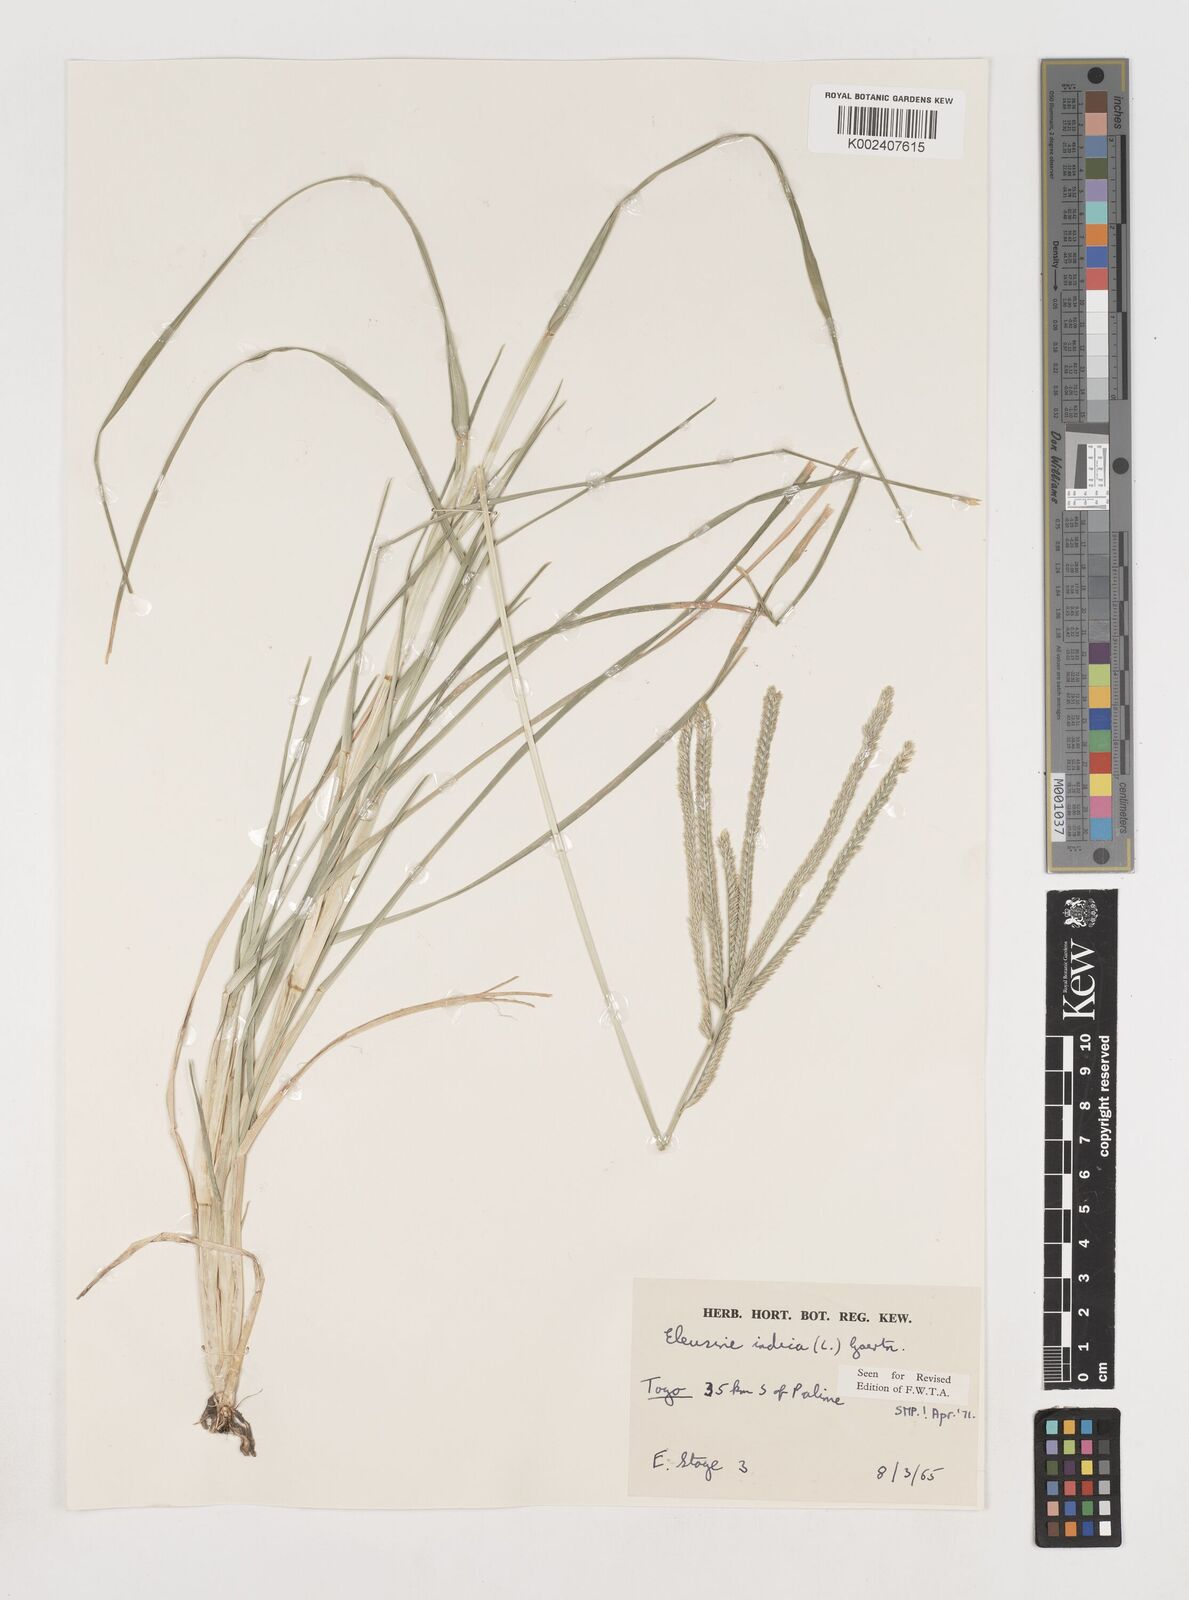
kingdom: Plantae
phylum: Tracheophyta
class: Liliopsida
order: Poales
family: Poaceae
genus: Eleusine
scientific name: Eleusine indica
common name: Yard-grass
